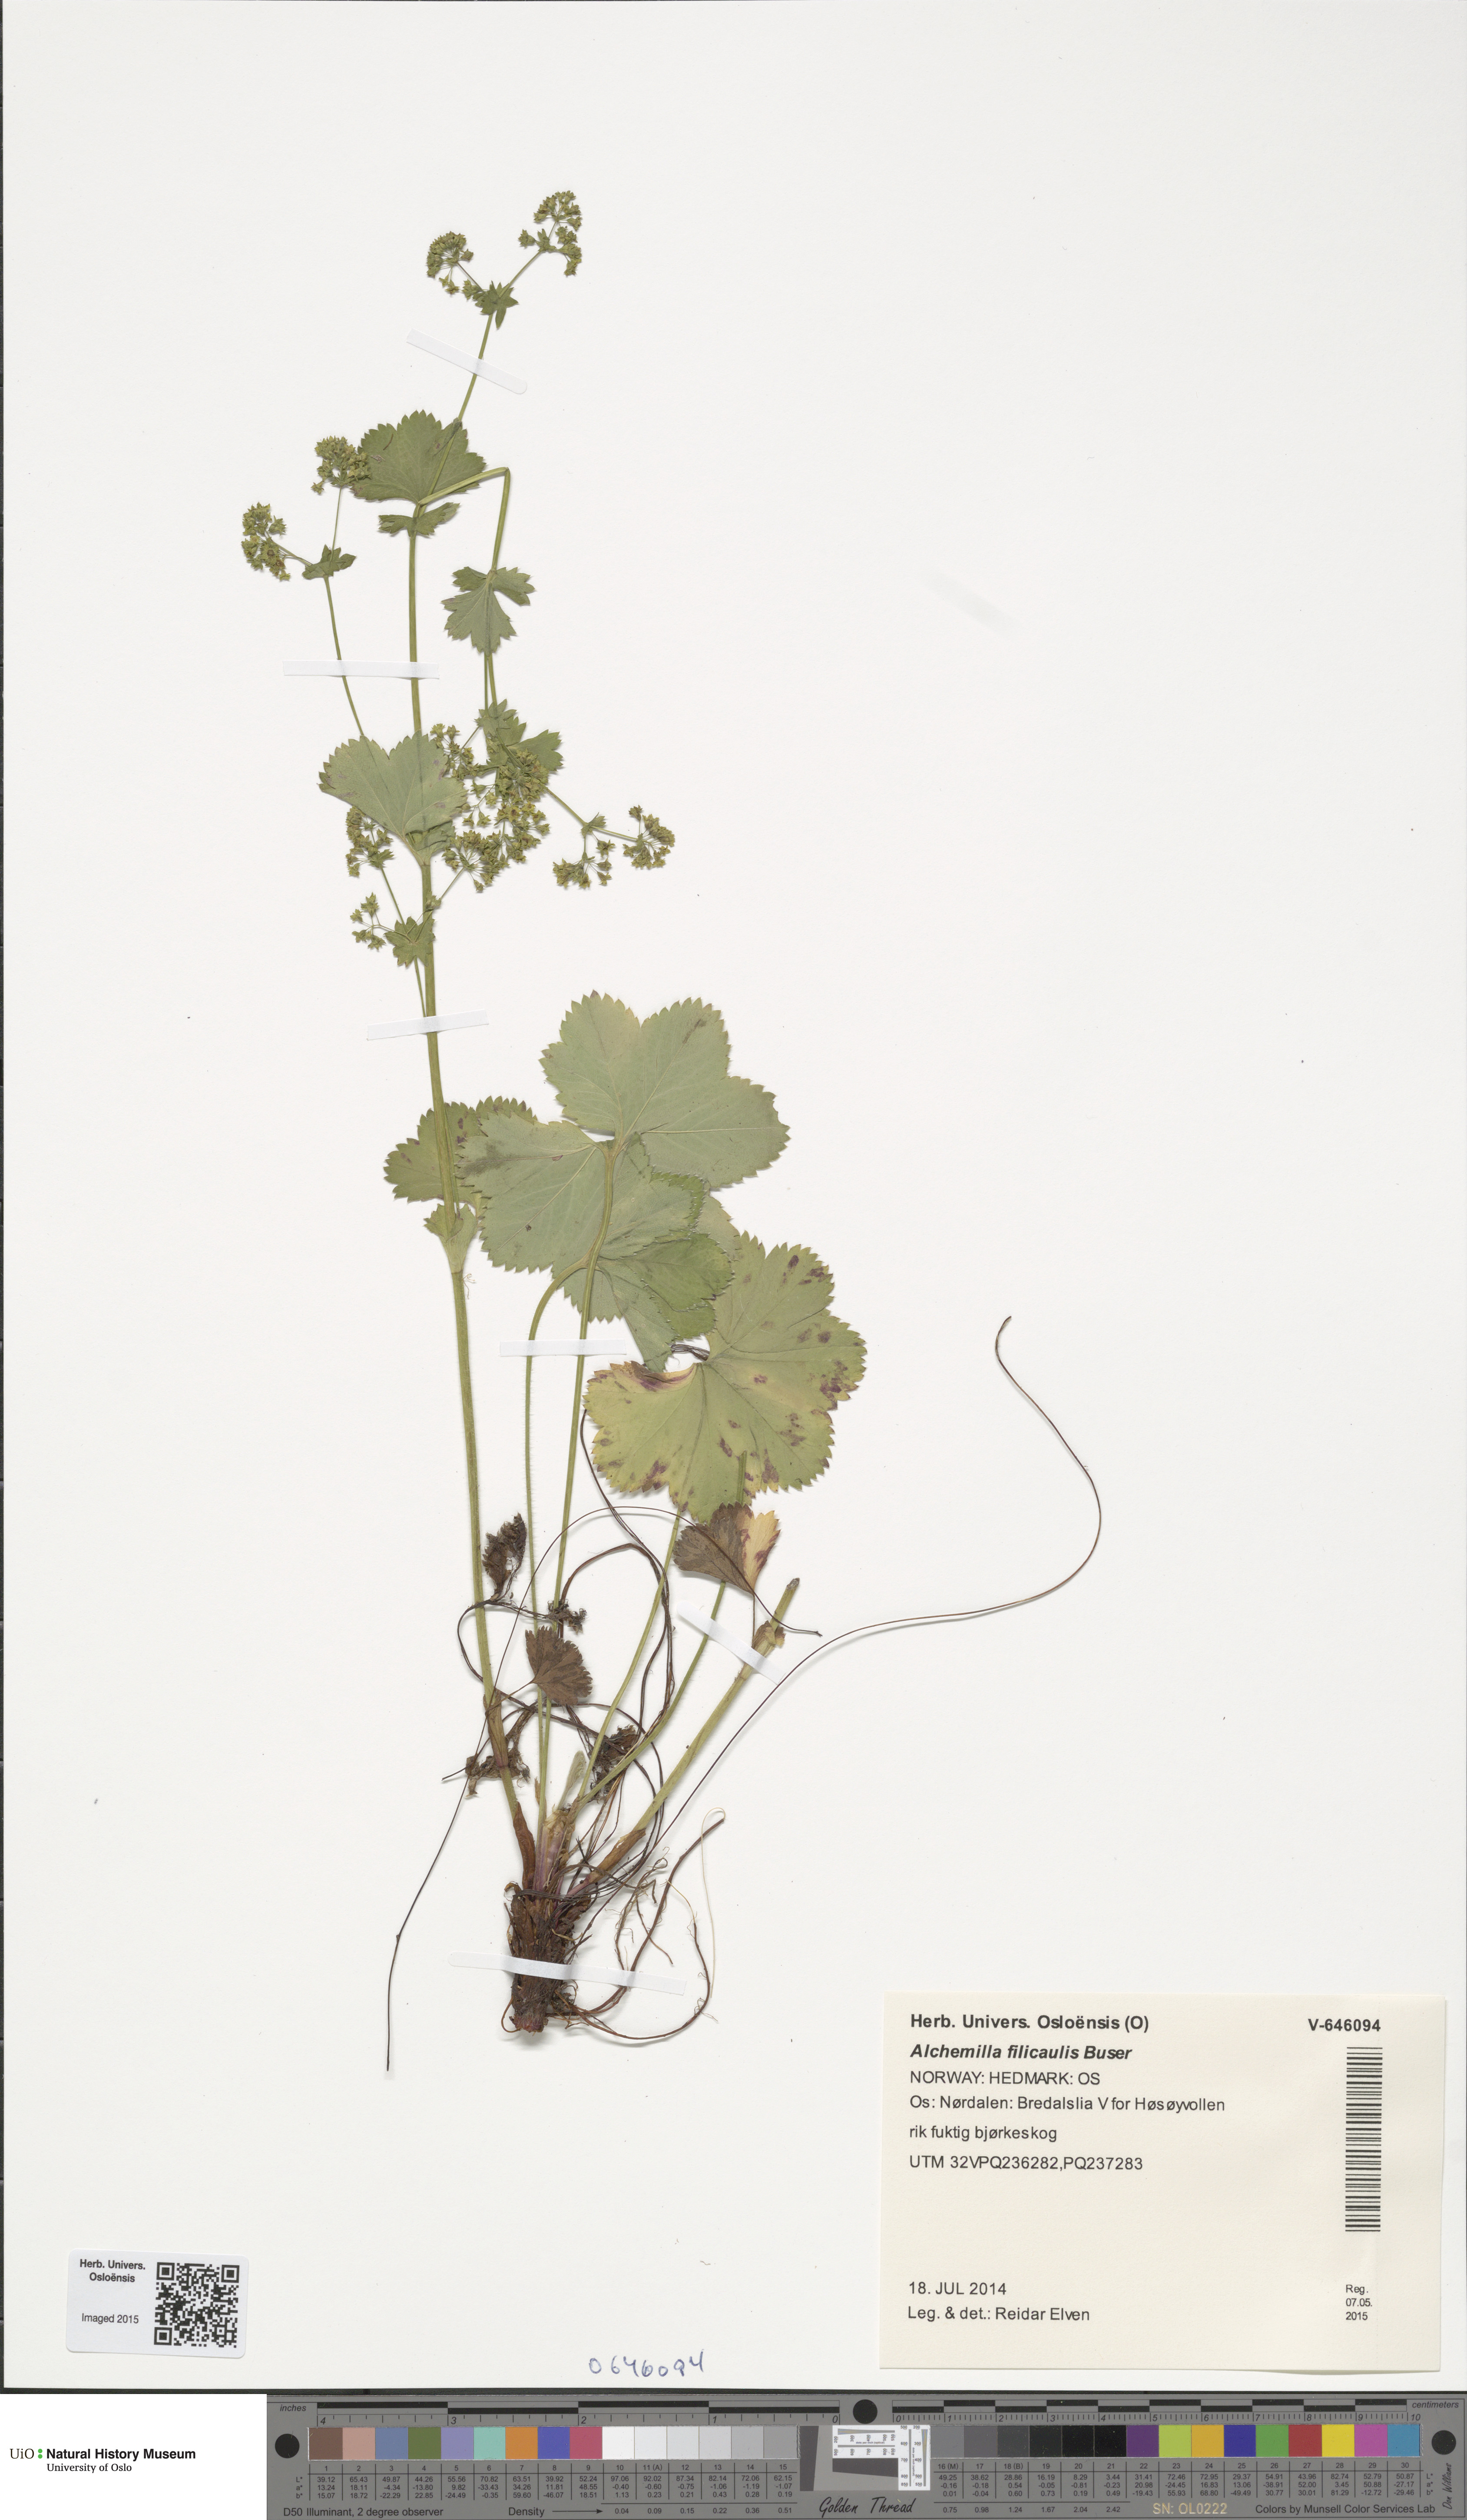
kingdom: Plantae
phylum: Tracheophyta
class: Magnoliopsida
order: Rosales
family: Rosaceae
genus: Alchemilla
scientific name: Alchemilla filicaulis
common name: Hairy lady's-mantle
